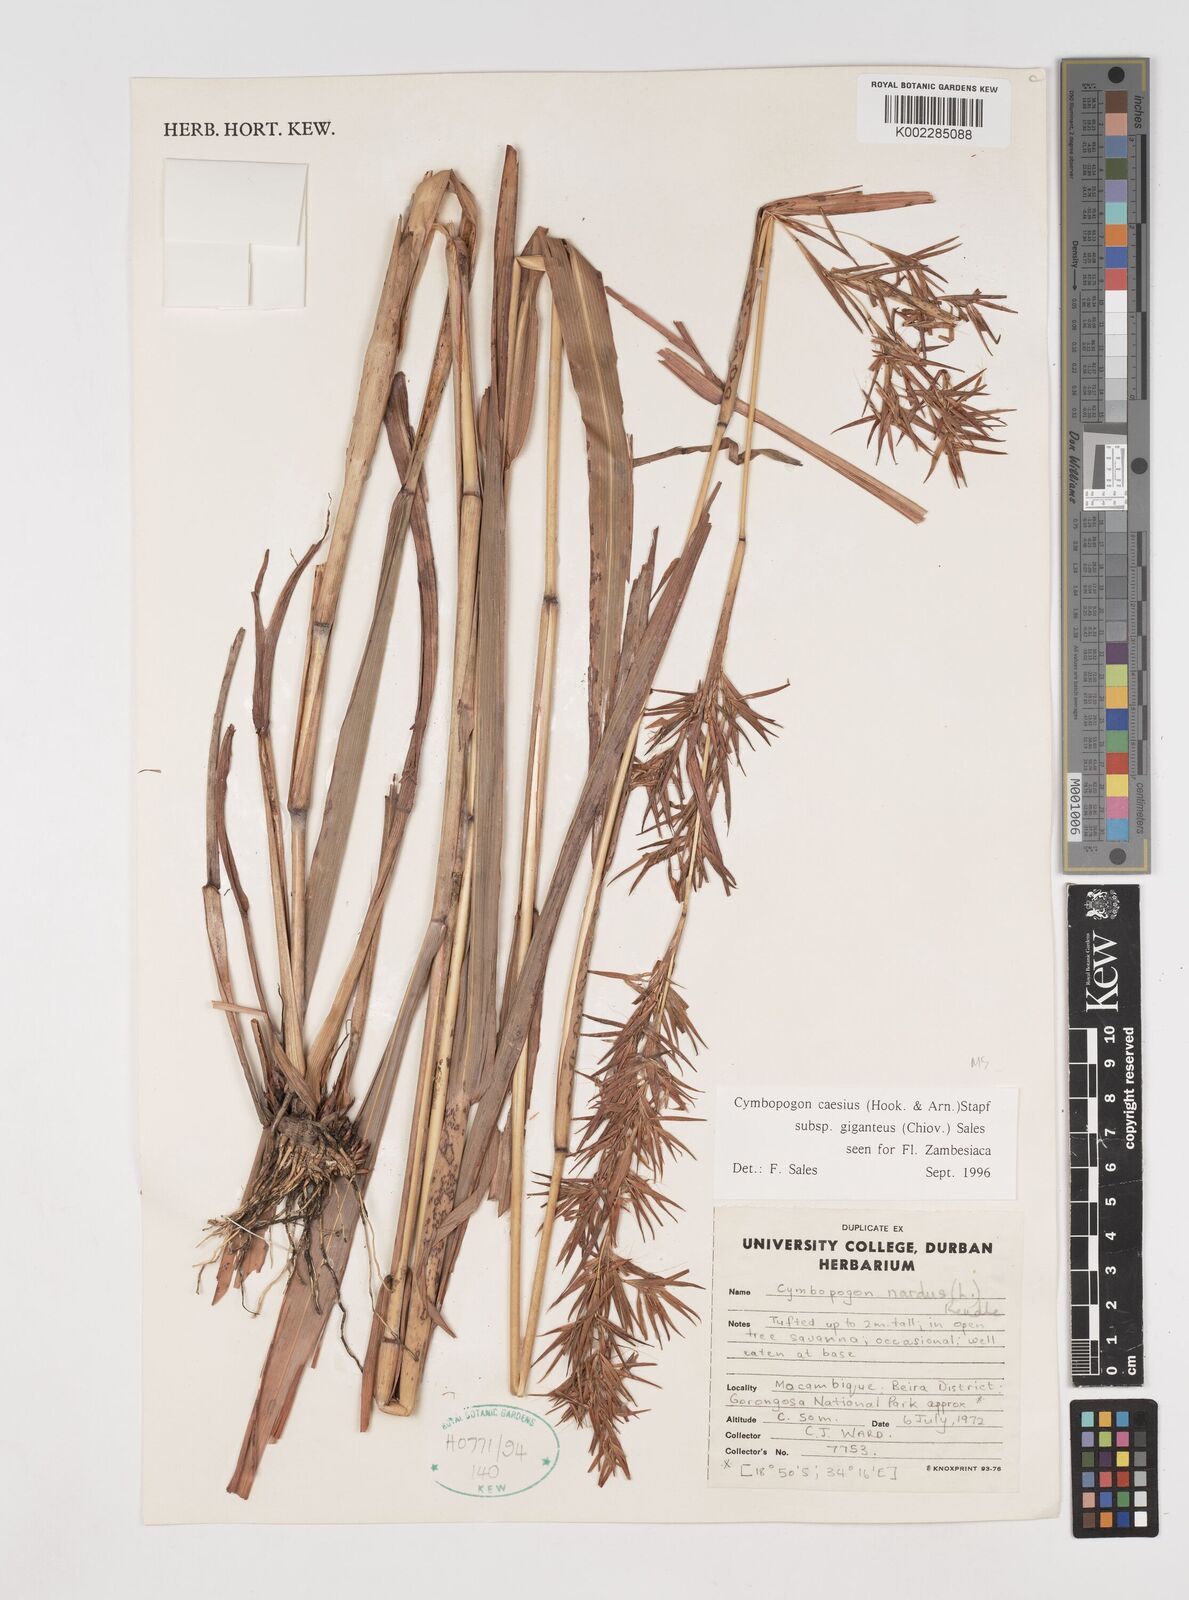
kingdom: Plantae
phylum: Tracheophyta
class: Liliopsida
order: Poales
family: Poaceae
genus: Cymbopogon
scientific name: Cymbopogon giganteus
